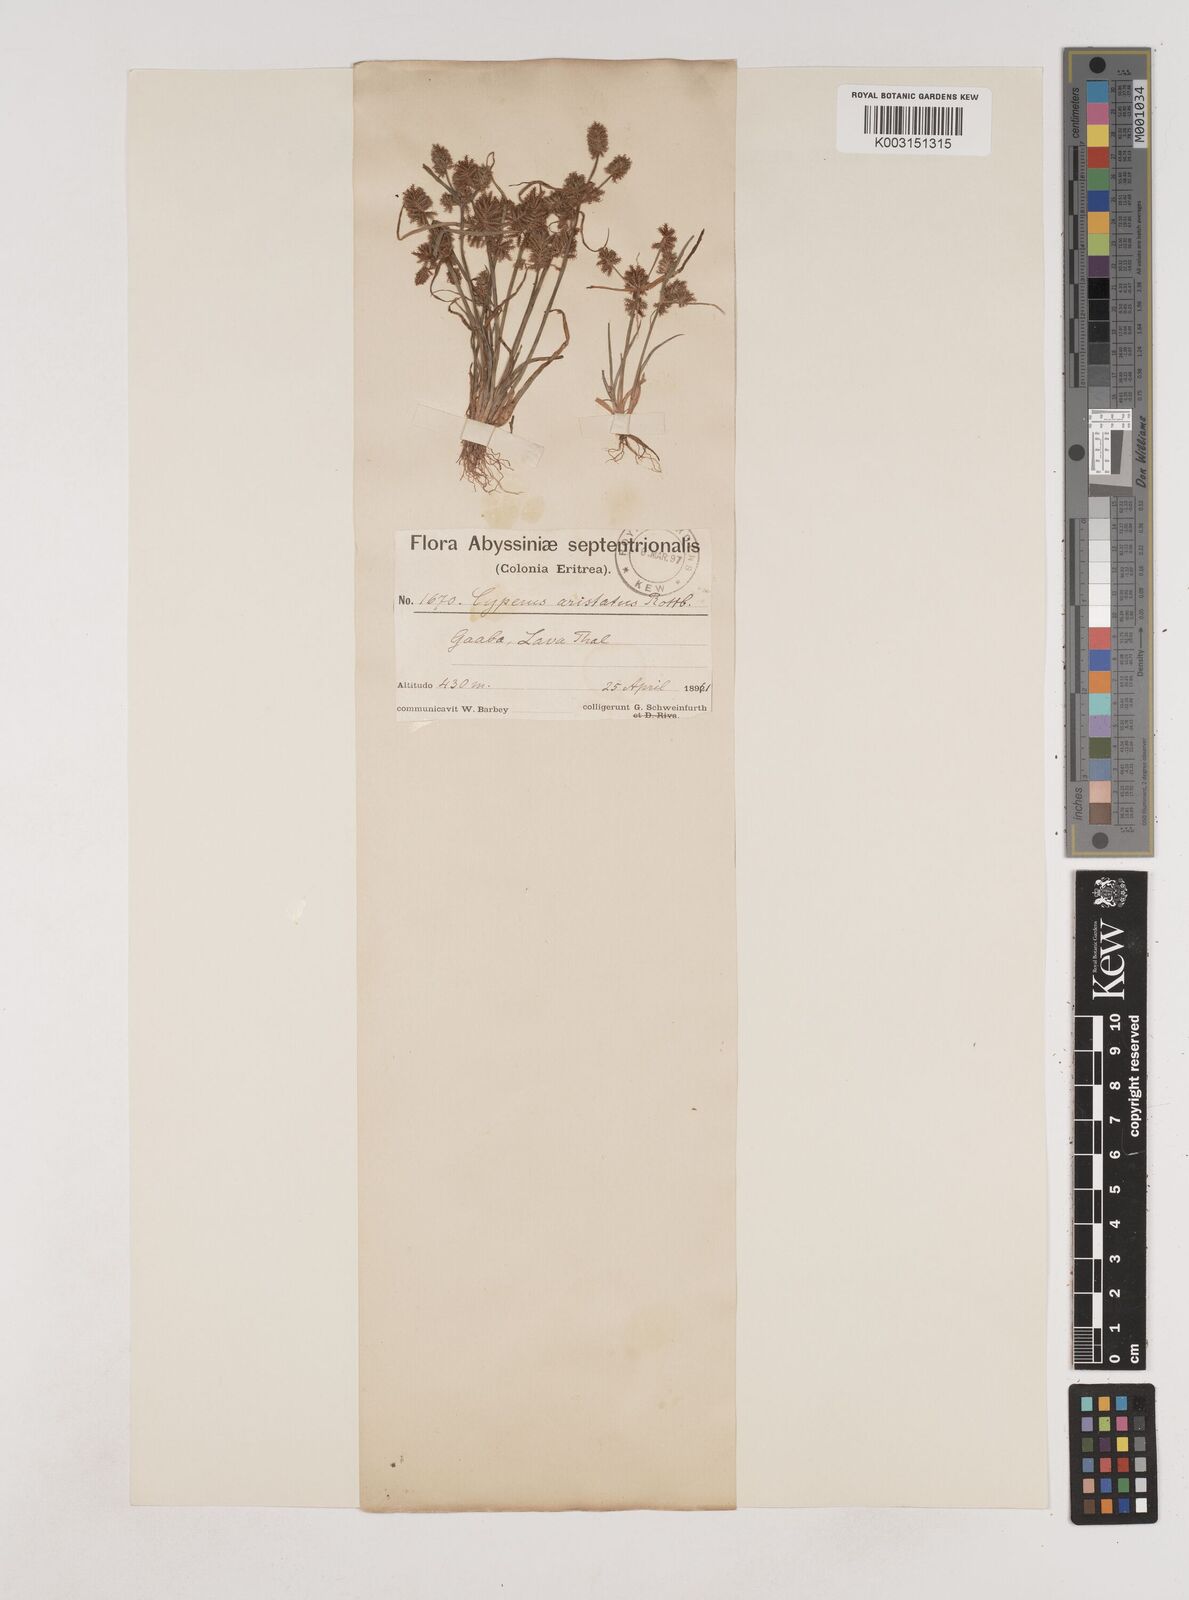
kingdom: Plantae
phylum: Tracheophyta
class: Liliopsida
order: Poales
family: Cyperaceae
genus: Cyperus
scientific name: Cyperus squarrosus
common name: Awned cyperus
